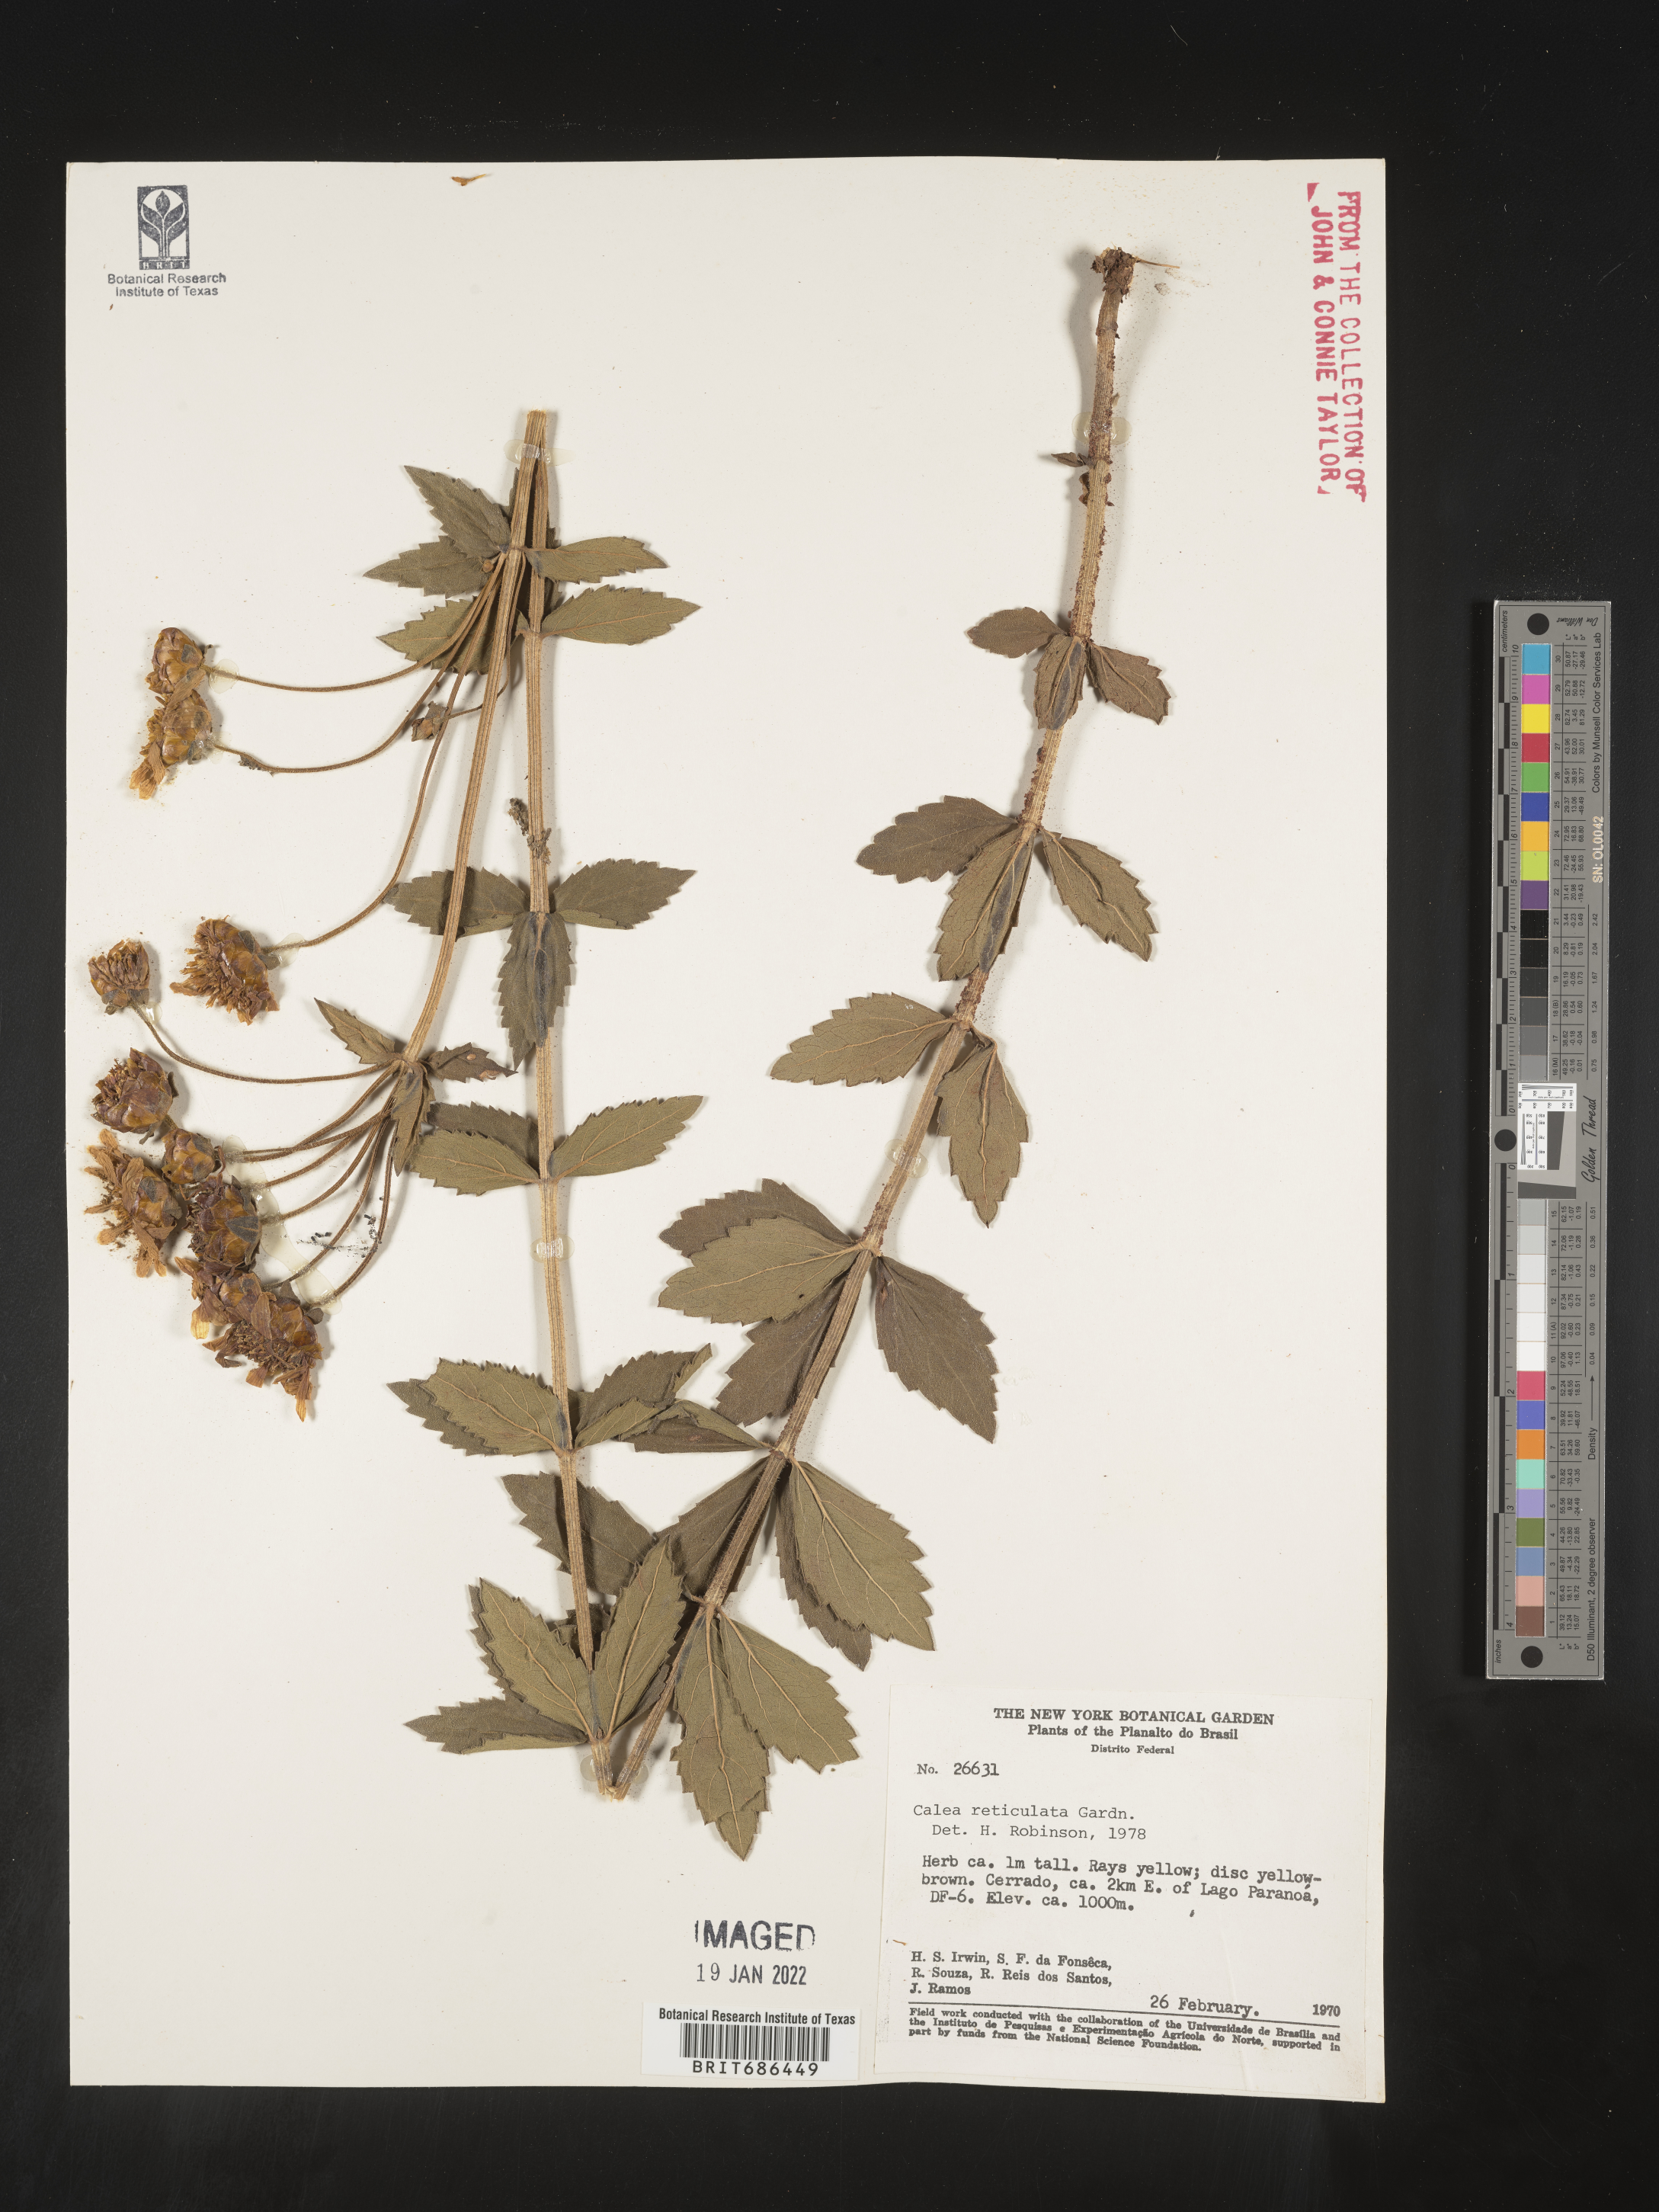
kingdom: Plantae
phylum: Tracheophyta
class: Magnoliopsida
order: Asterales
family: Asteraceae
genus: Calea
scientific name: Calea quadrifolia
